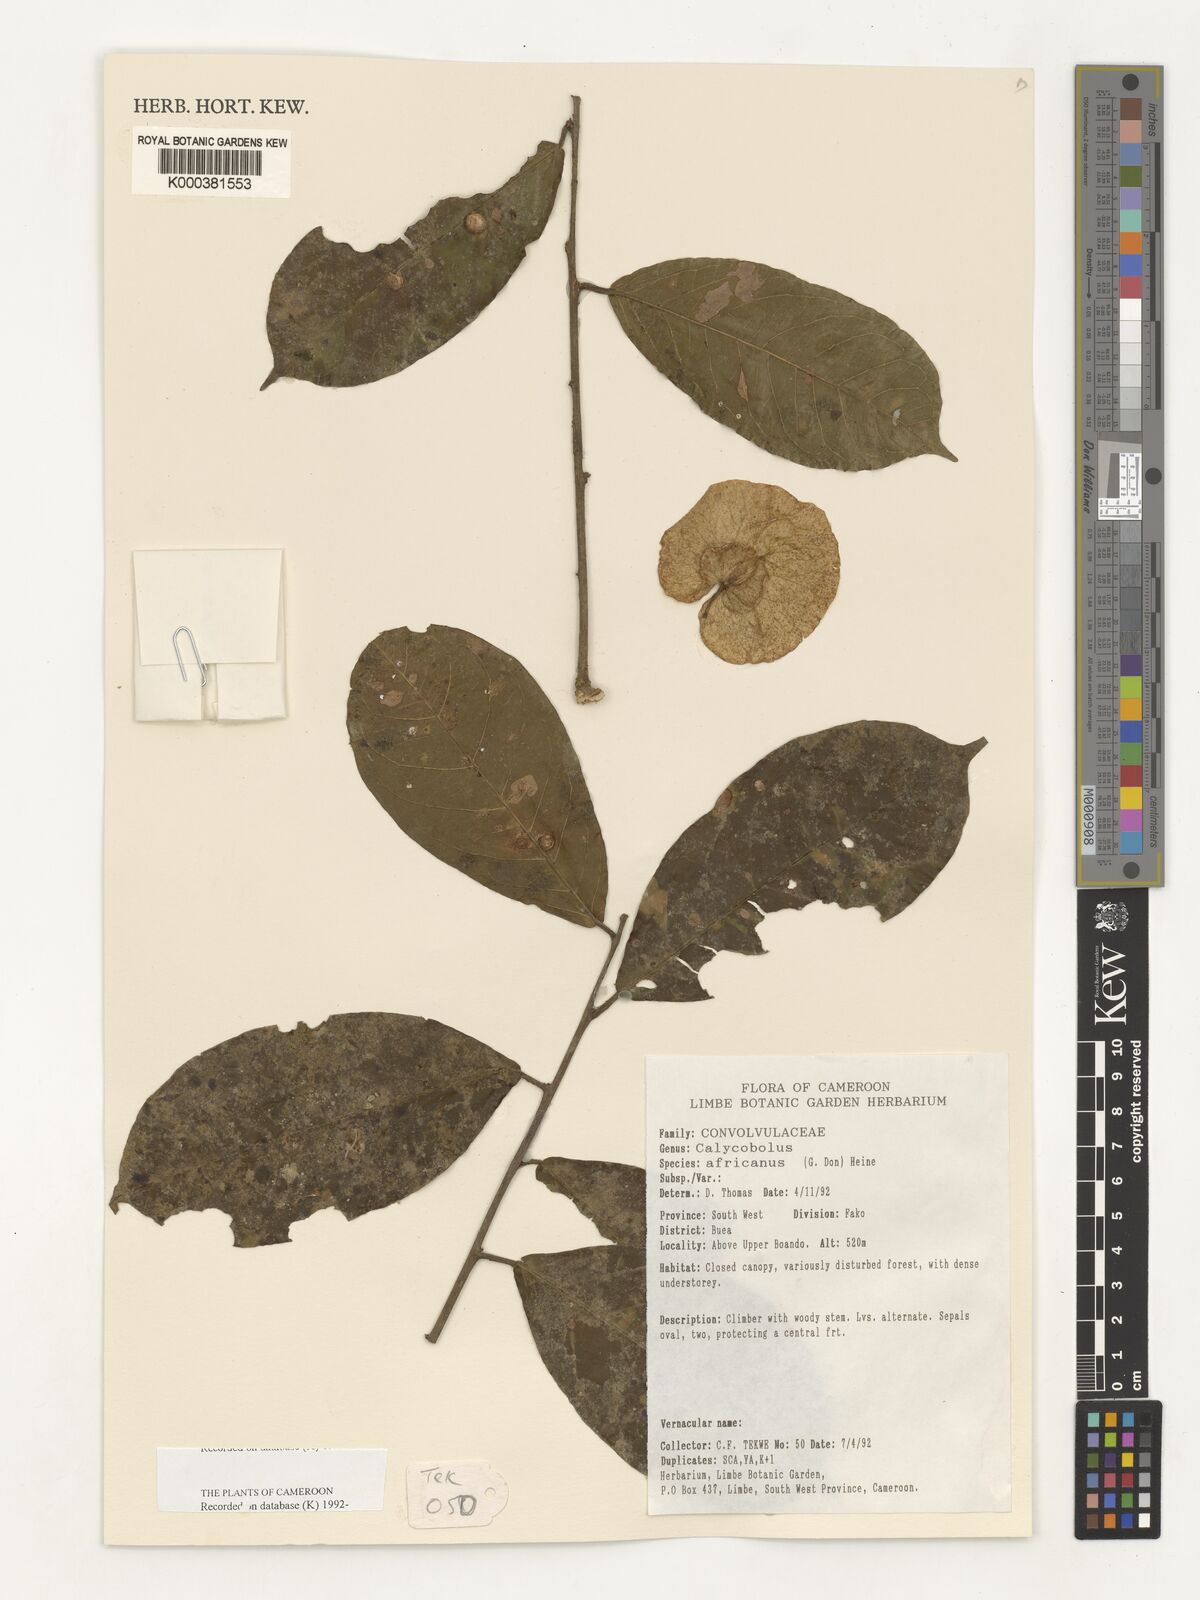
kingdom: Plantae
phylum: Tracheophyta
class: Magnoliopsida
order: Solanales
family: Convolvulaceae
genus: Calycobolus
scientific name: Calycobolus africanus
